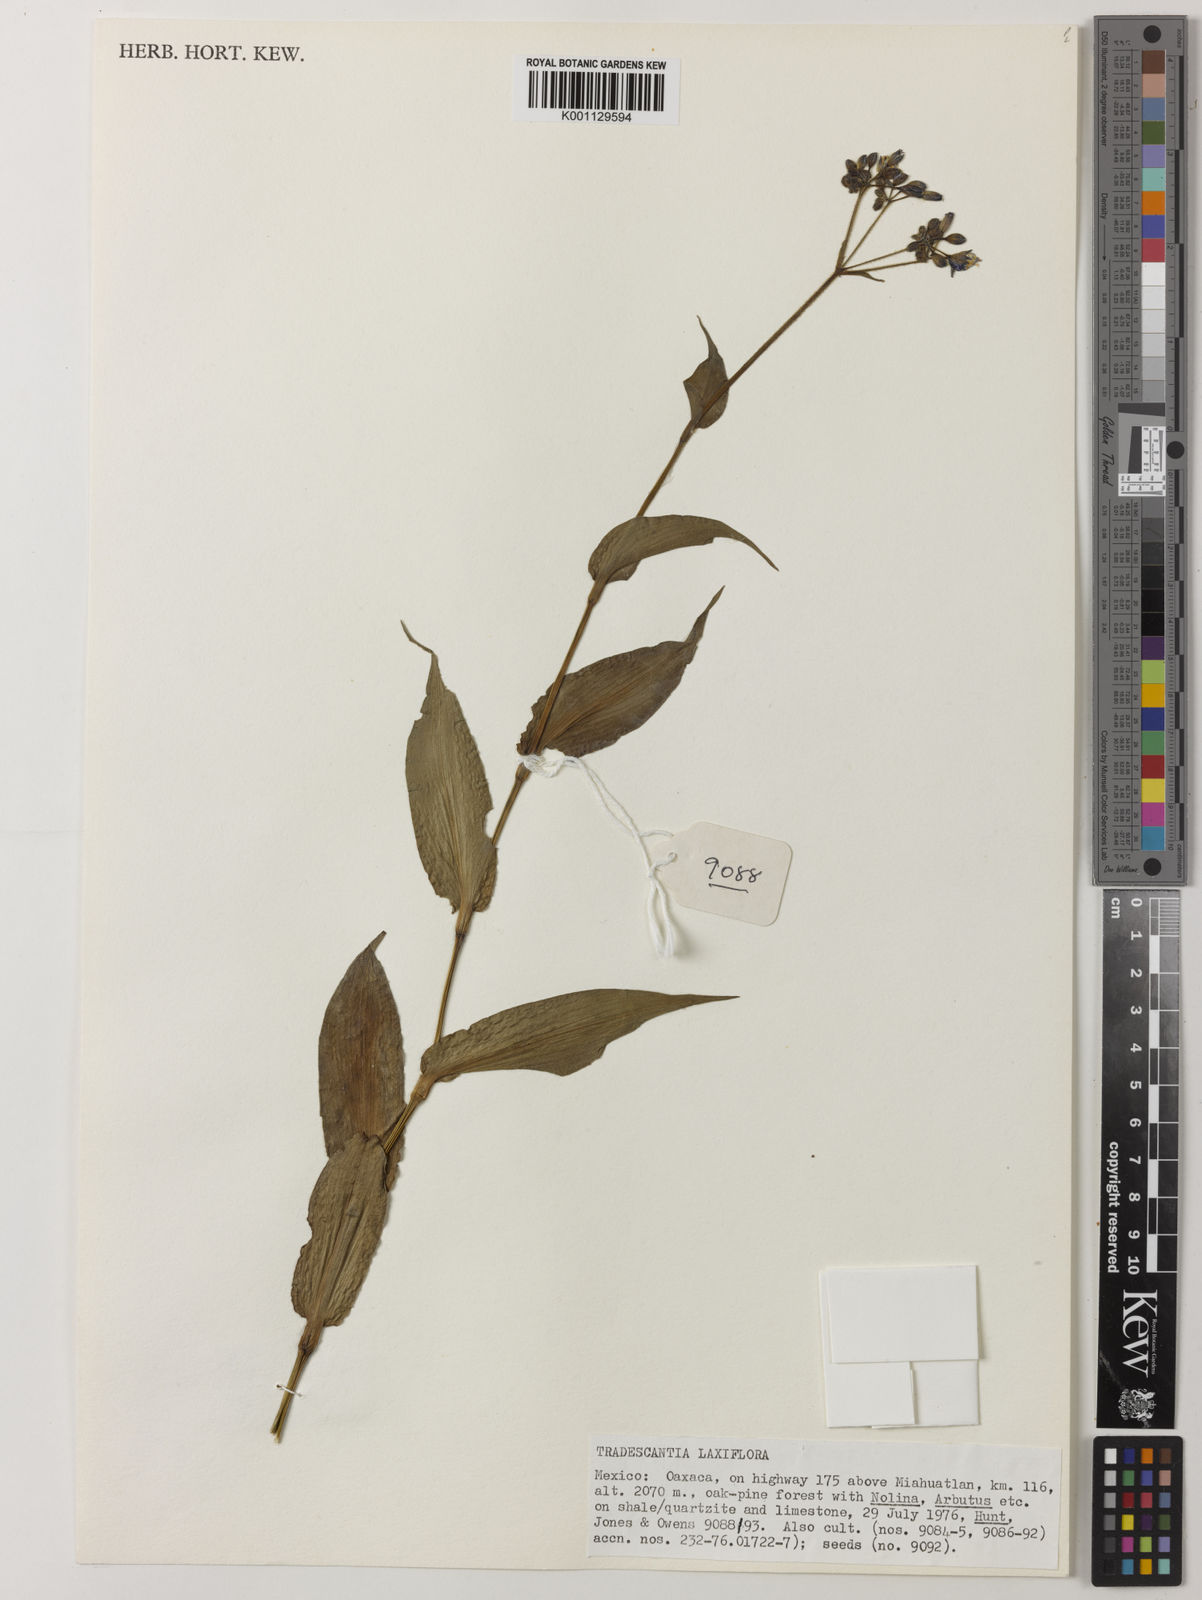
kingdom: Plantae
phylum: Tracheophyta
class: Liliopsida
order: Commelinales
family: Commelinaceae
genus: Thyrsanthemum
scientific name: Thyrsanthemum
